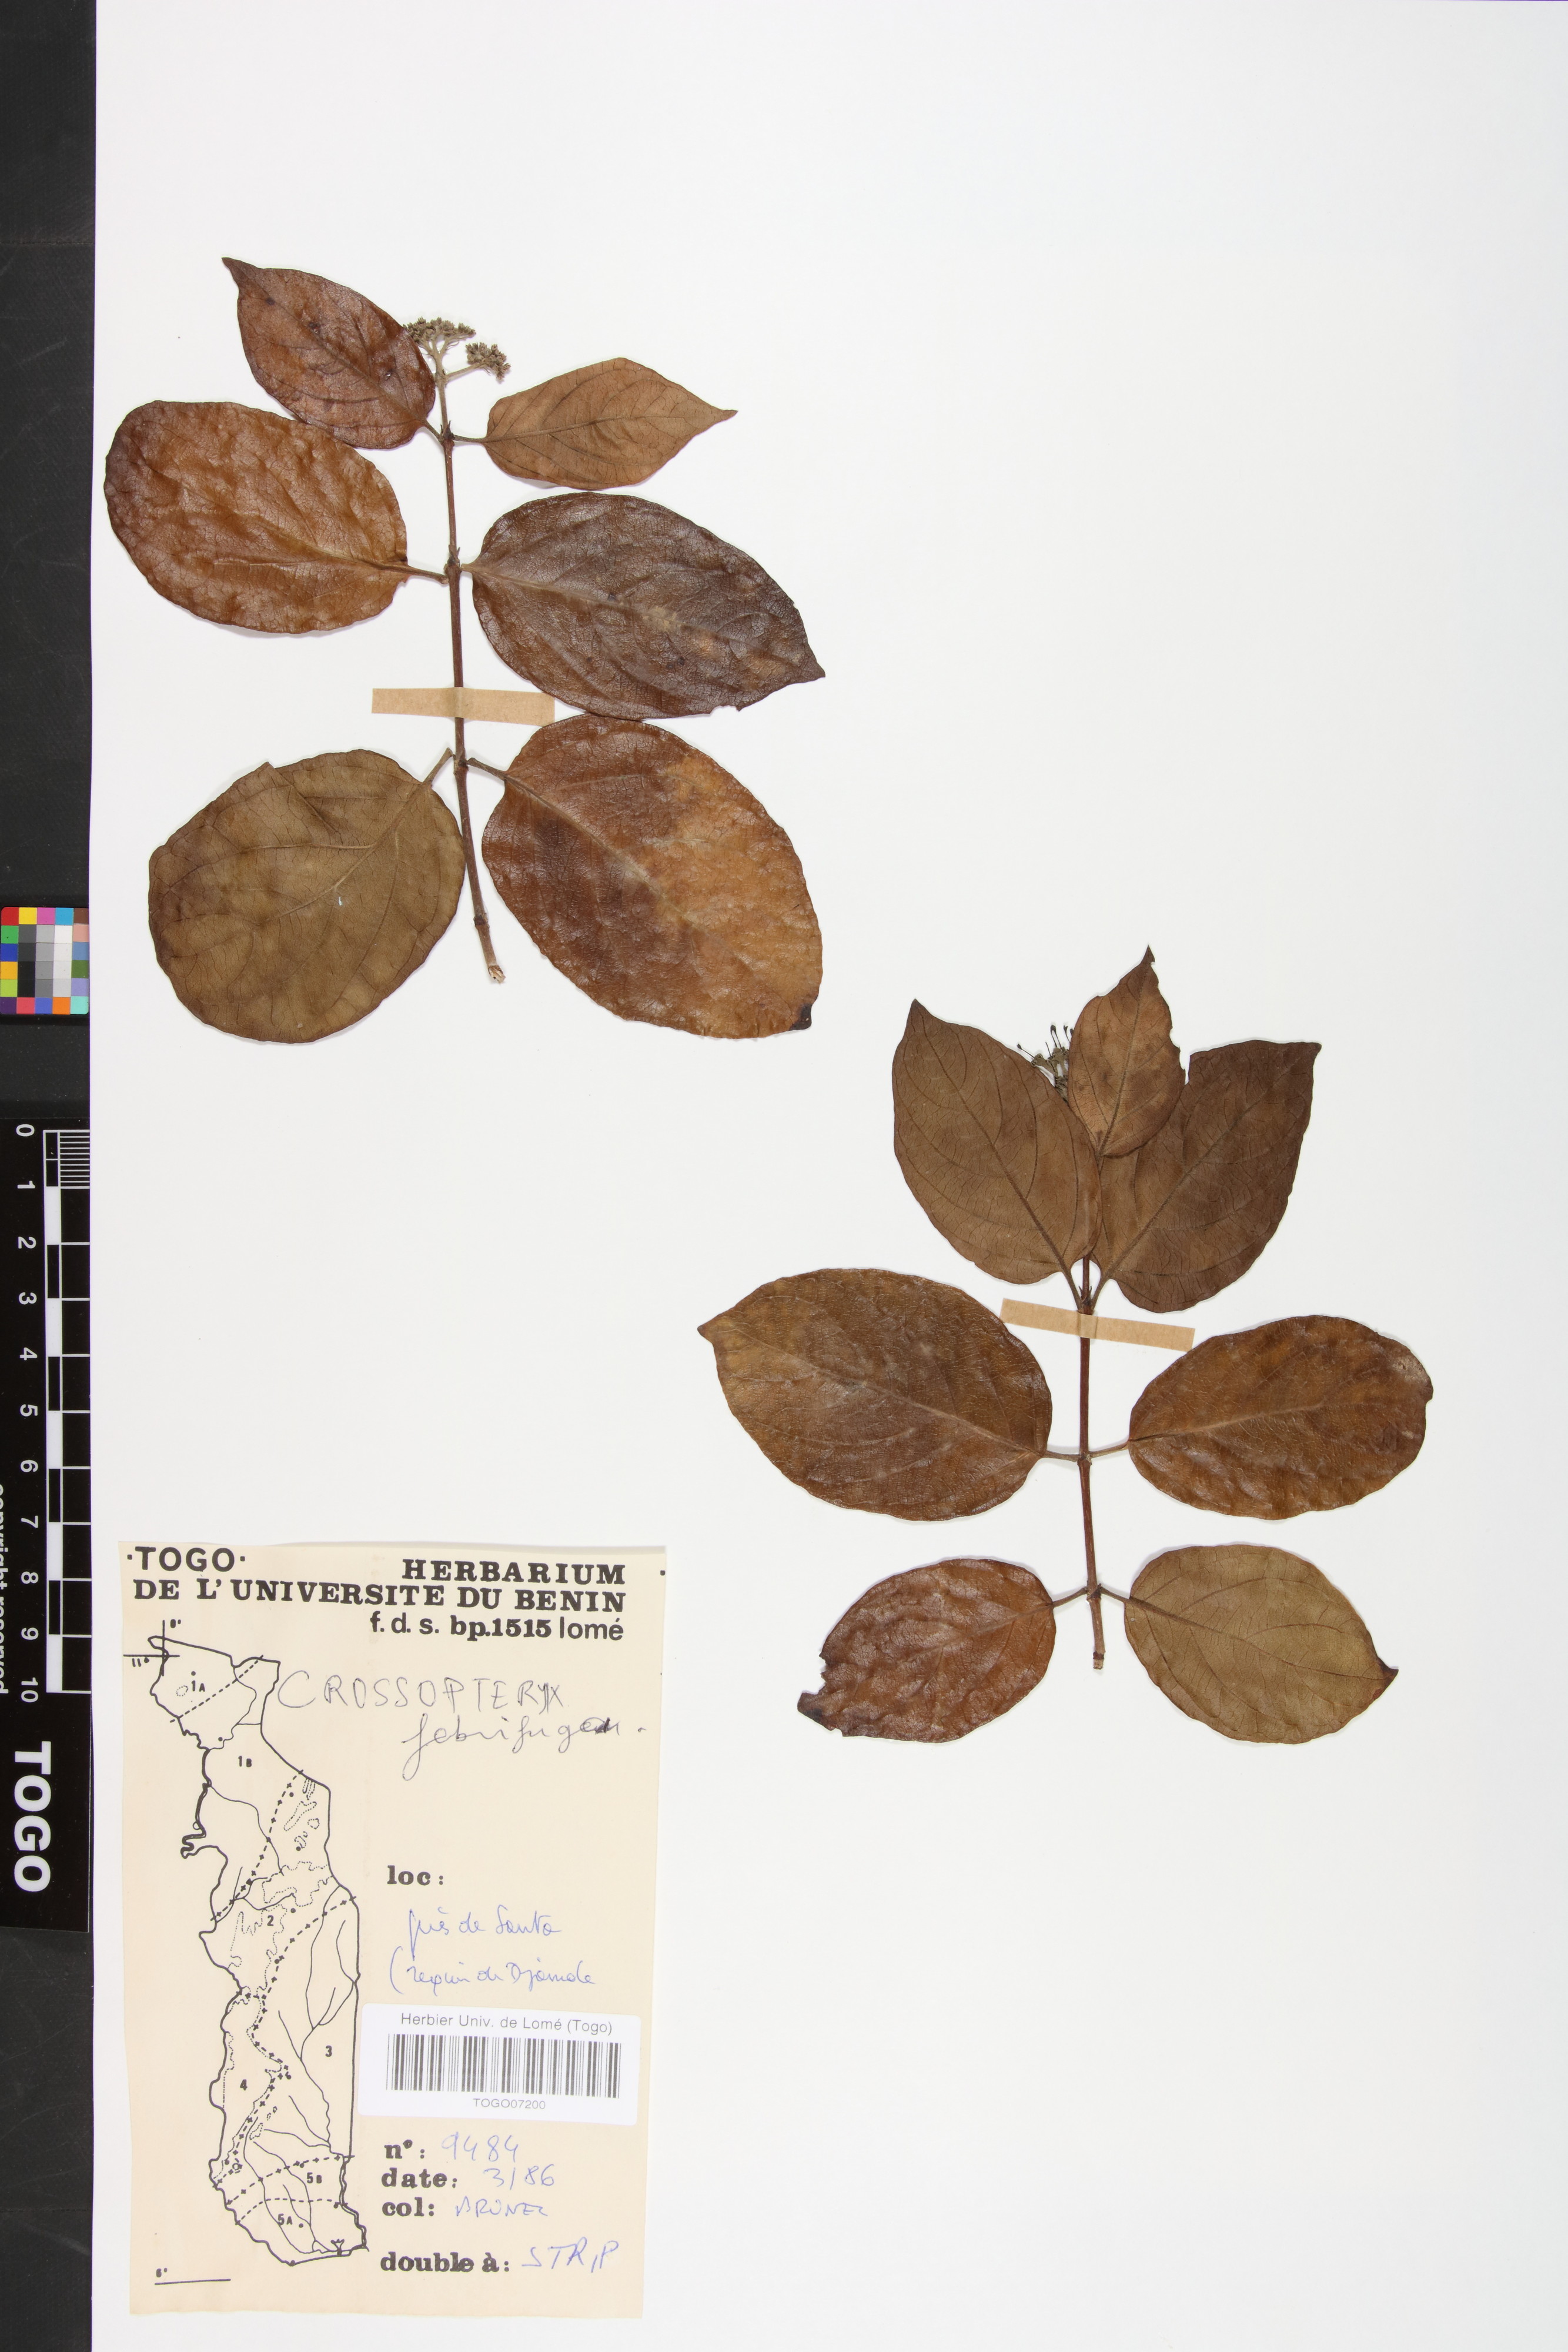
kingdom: Plantae
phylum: Tracheophyta
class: Magnoliopsida
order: Gentianales
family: Rubiaceae
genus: Crossopteryx
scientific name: Crossopteryx febrifuga
